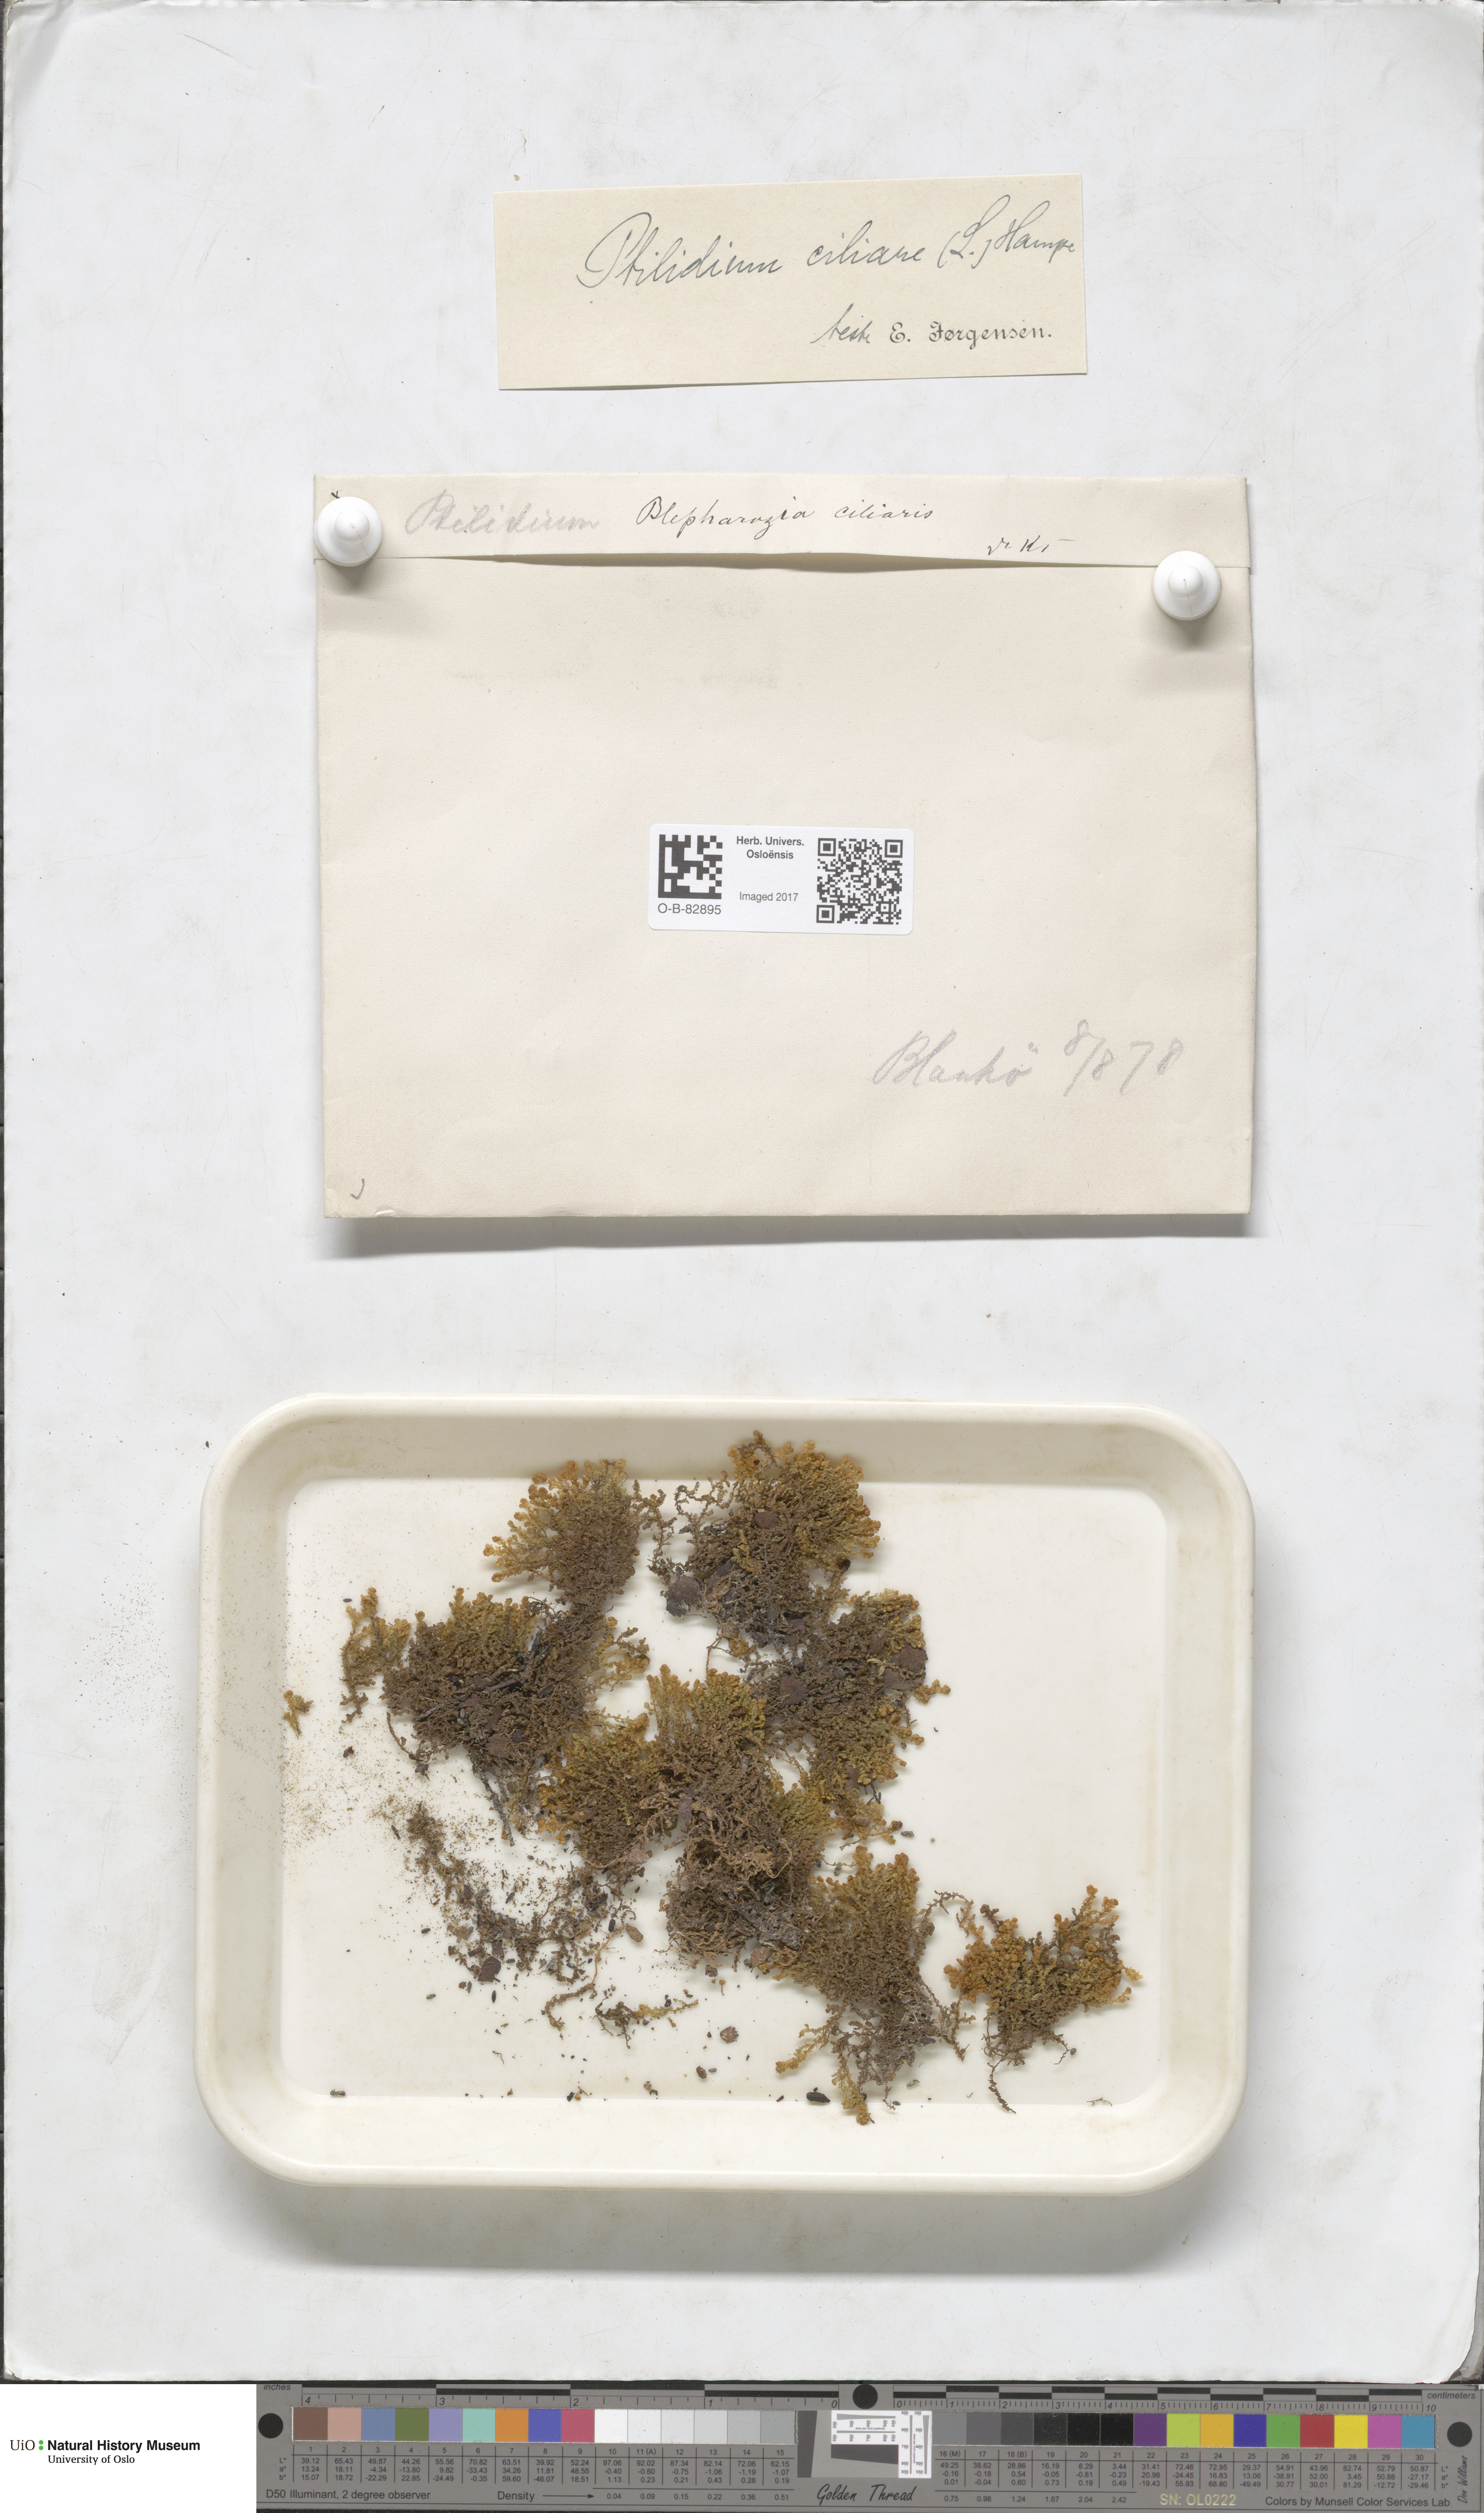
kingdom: Plantae
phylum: Marchantiophyta
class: Jungermanniopsida
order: Ptilidiales
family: Ptilidiaceae
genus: Ptilidium
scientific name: Ptilidium ciliare
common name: Ciliate fringewort
